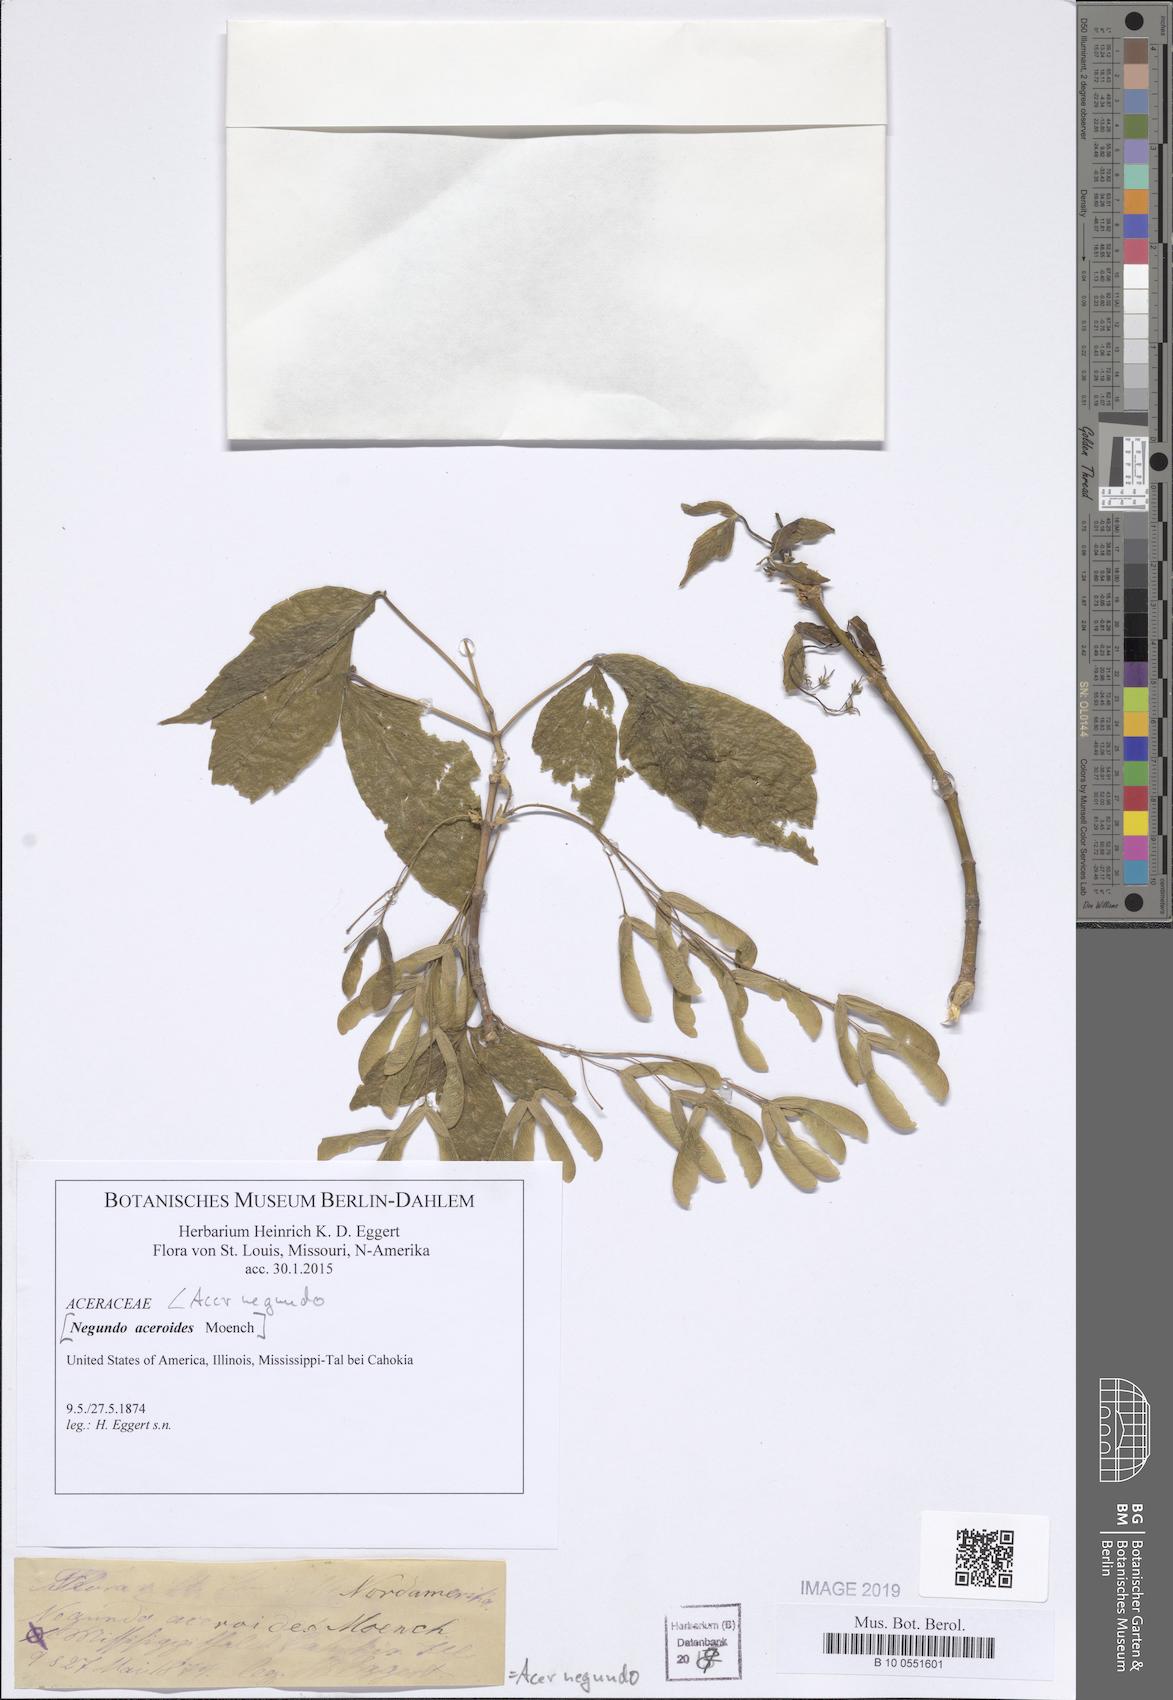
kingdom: Plantae
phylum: Tracheophyta
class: Magnoliopsida
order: Sapindales
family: Sapindaceae
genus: Acer
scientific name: Acer negundo
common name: Ashleaf maple
